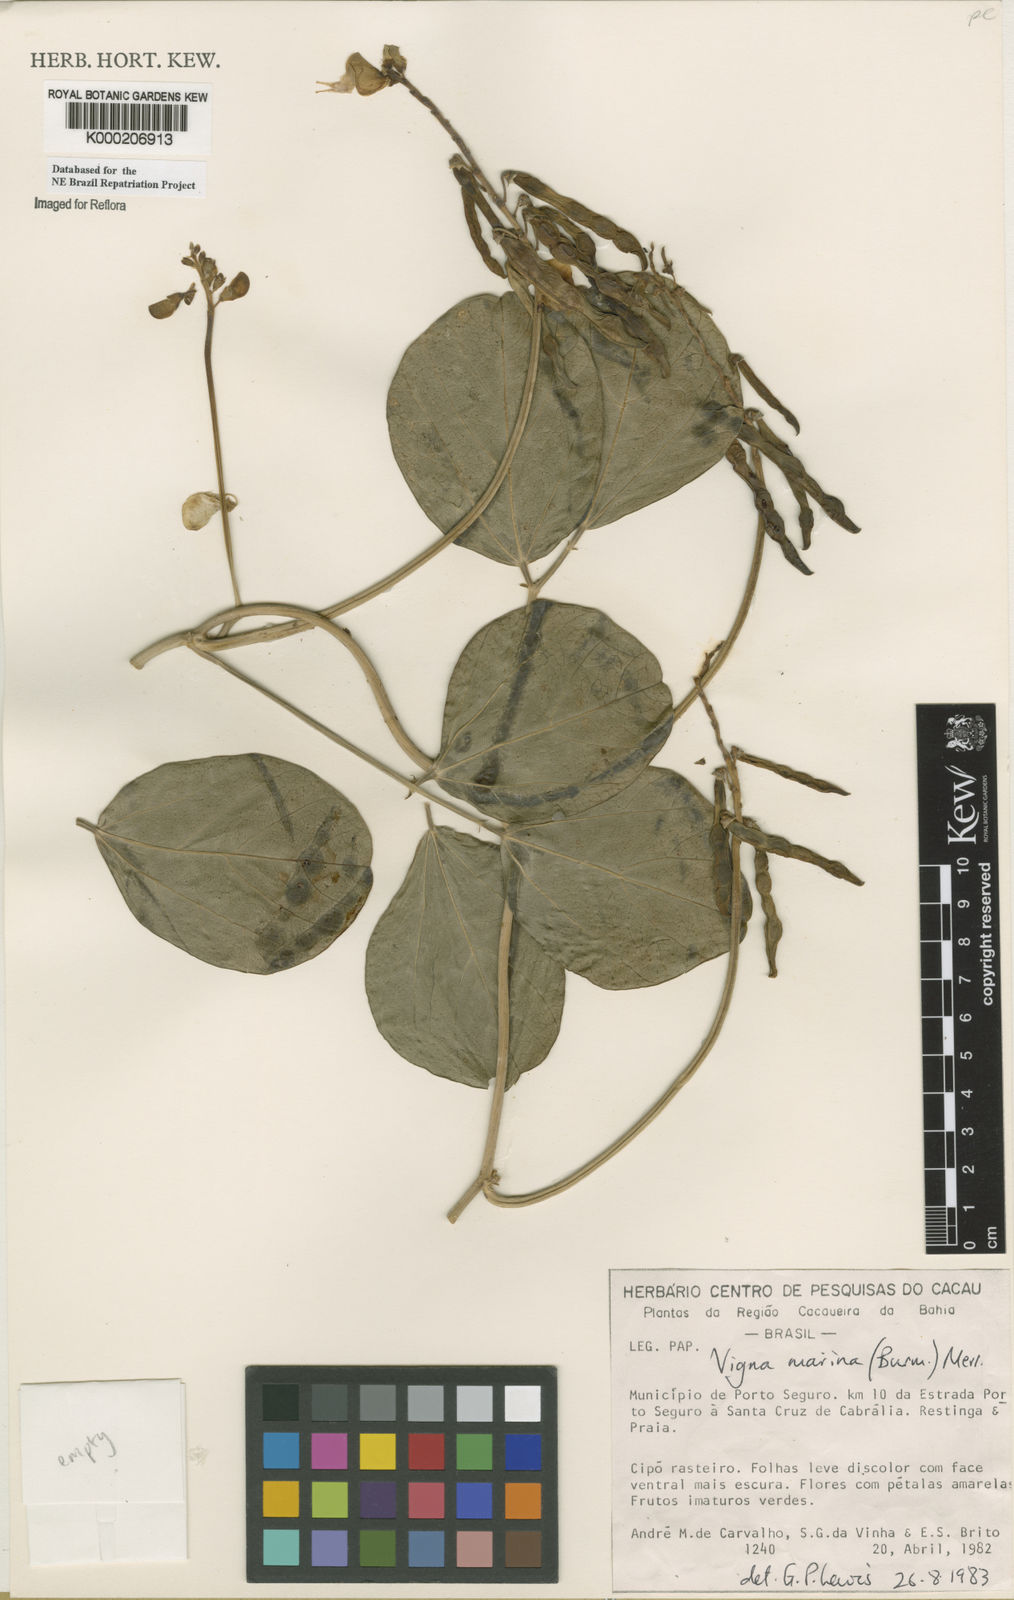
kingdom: Plantae
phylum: Tracheophyta
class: Magnoliopsida
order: Fabales
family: Fabaceae
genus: Vigna
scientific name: Vigna marina
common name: Dune-bean
